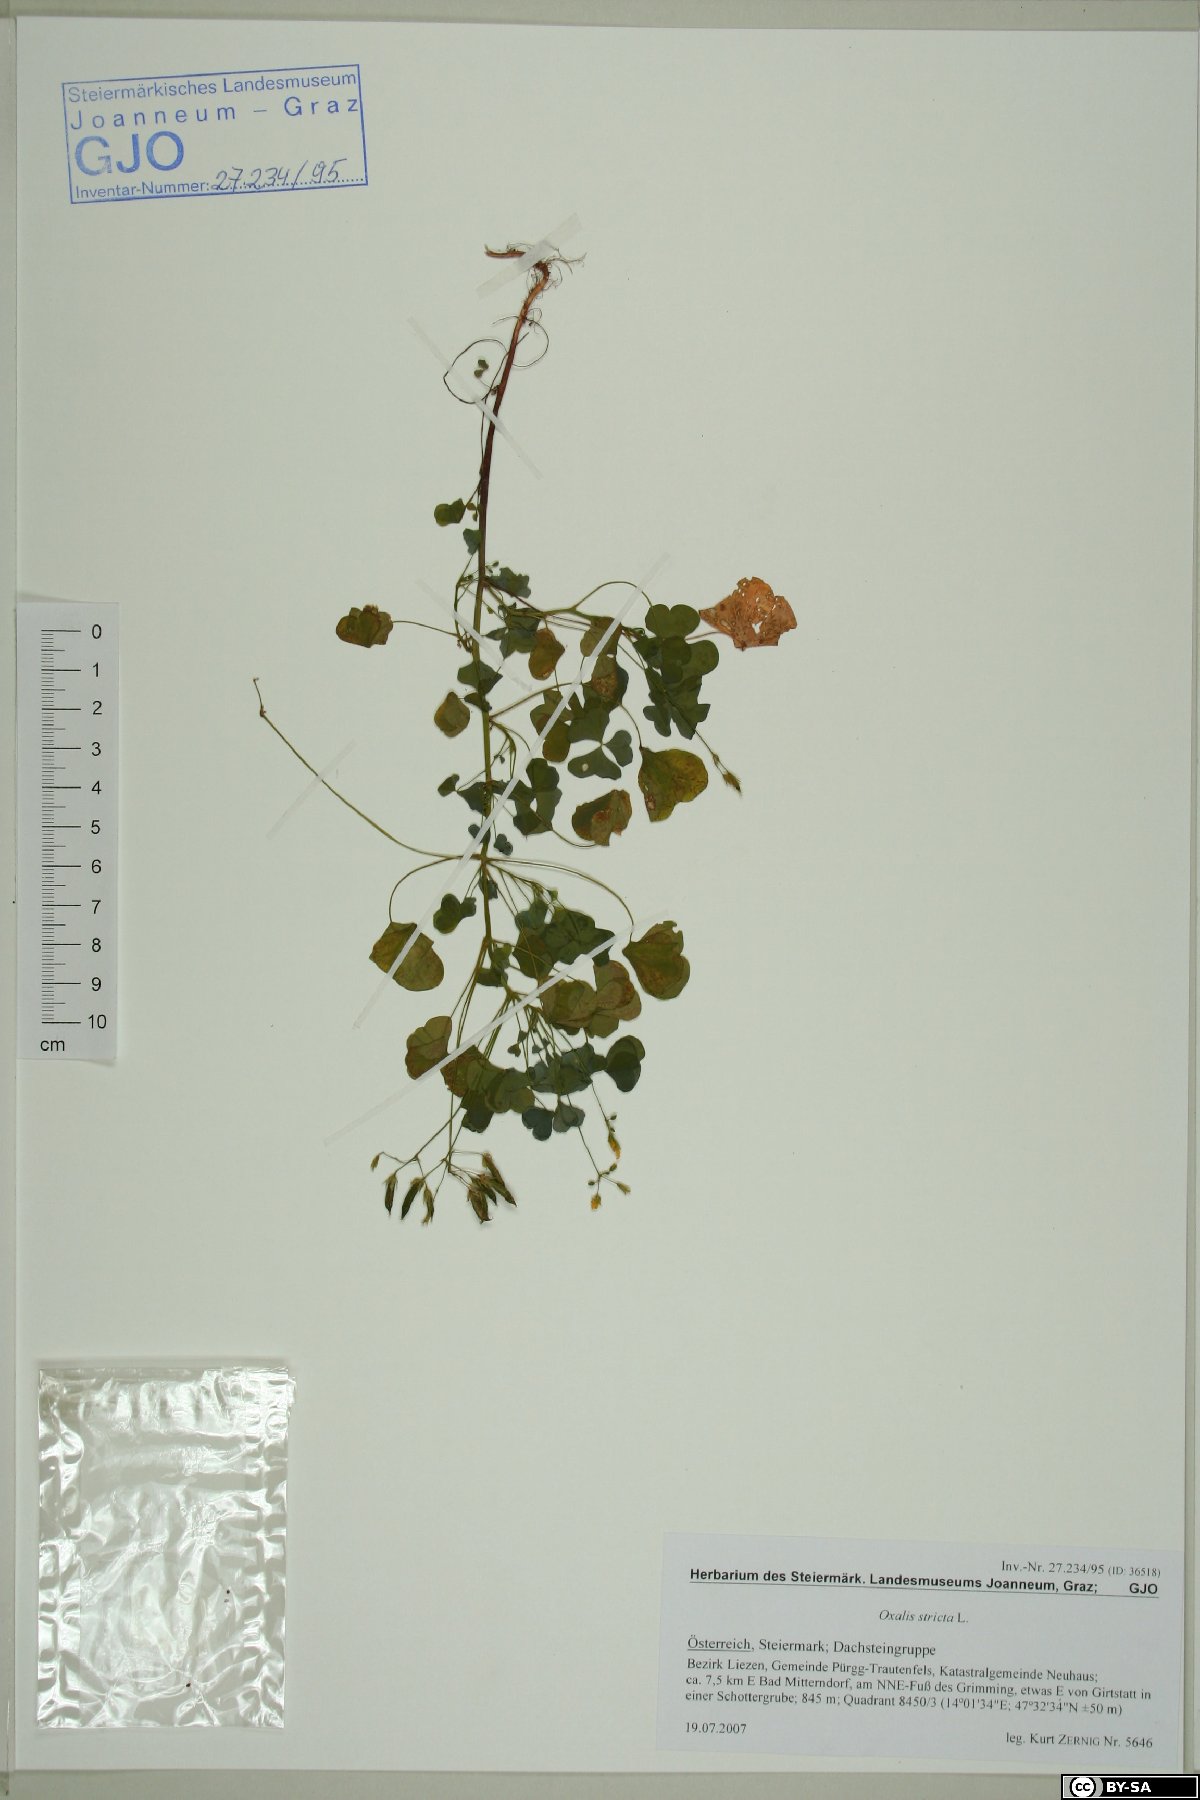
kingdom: Plantae
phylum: Tracheophyta
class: Magnoliopsida
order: Oxalidales
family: Oxalidaceae
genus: Oxalis
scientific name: Oxalis stricta
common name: Upright yellow-sorrel
